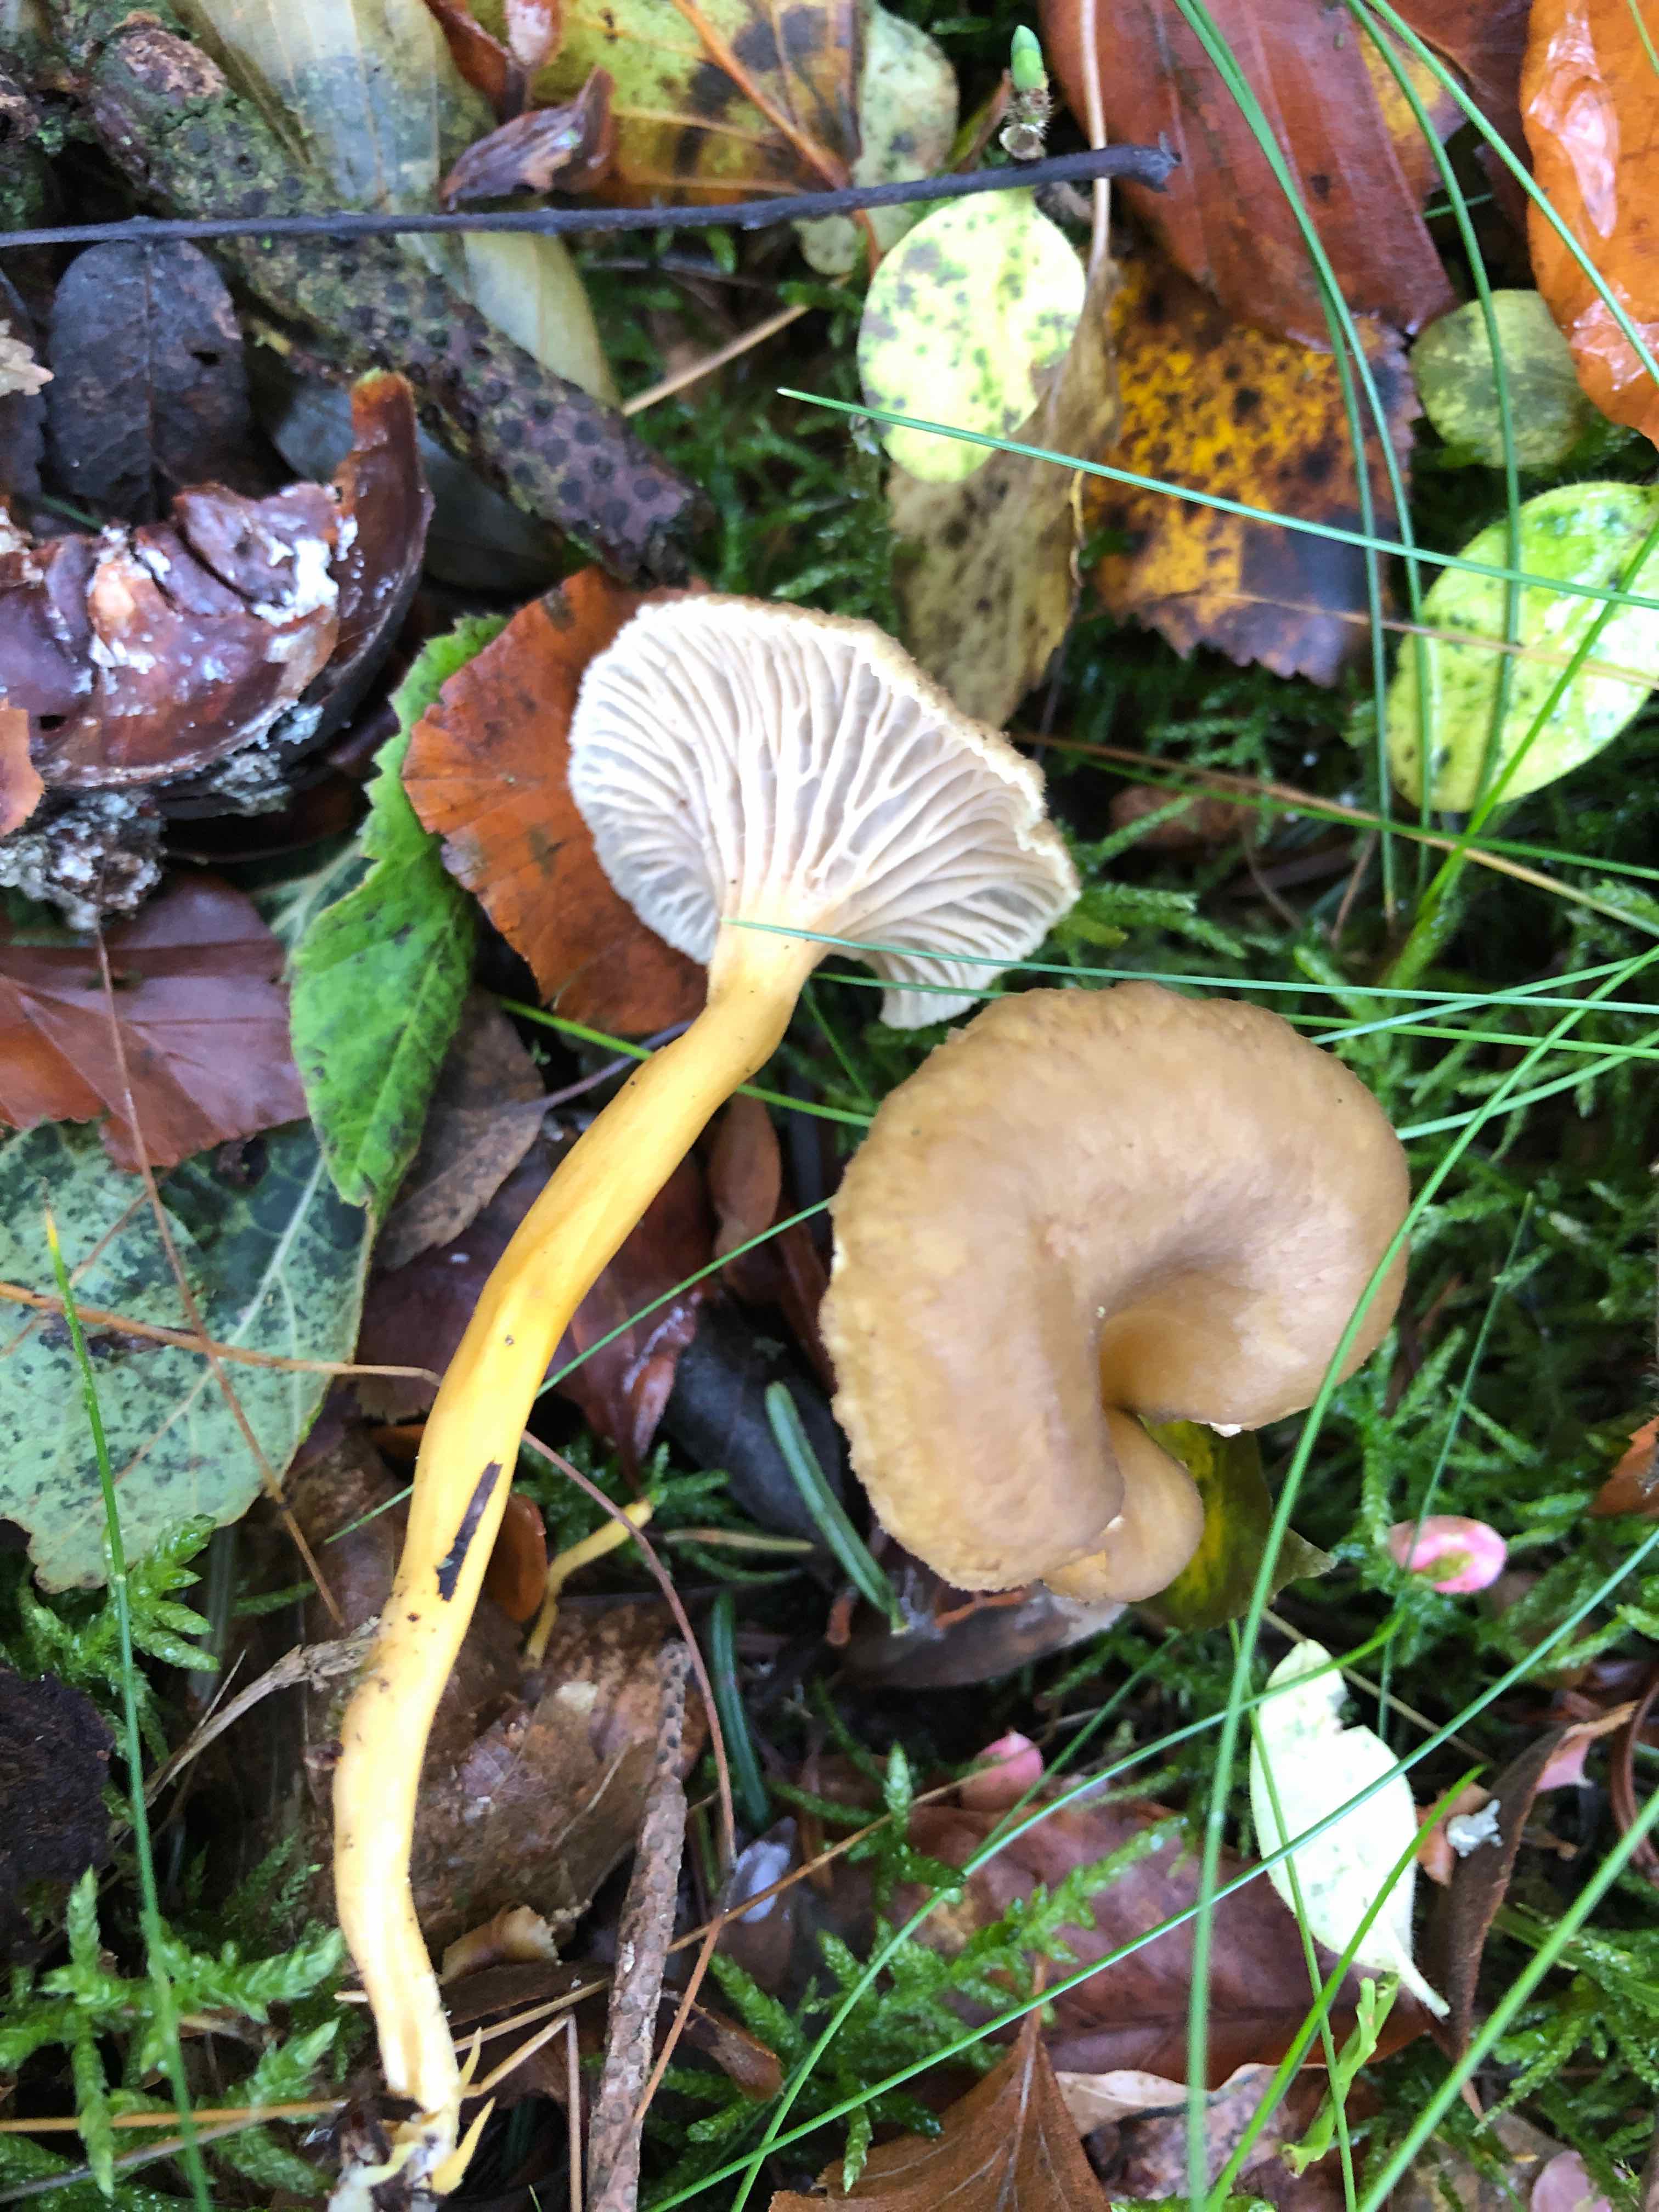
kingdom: Fungi
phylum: Basidiomycota
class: Agaricomycetes
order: Cantharellales
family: Hydnaceae
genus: Craterellus
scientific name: Craterellus tubaeformis
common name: tragt-kantarel
